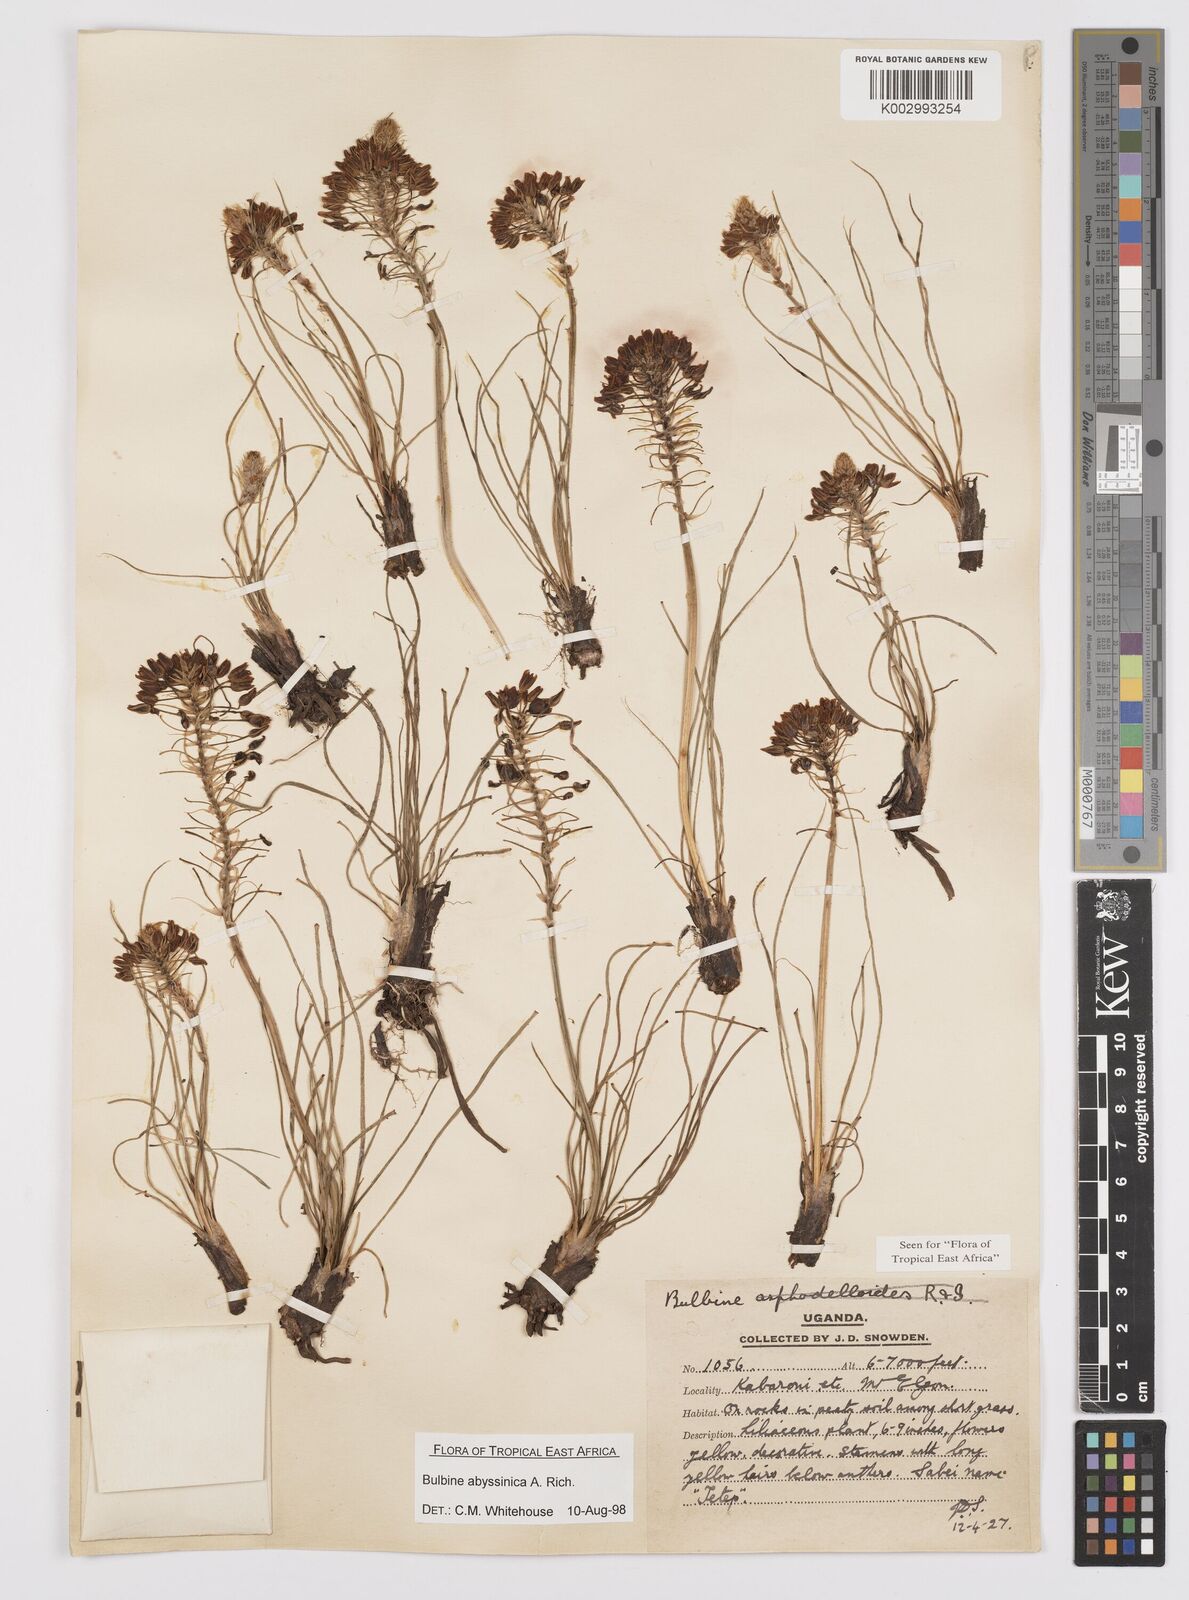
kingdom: Plantae
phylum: Tracheophyta
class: Liliopsida
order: Asparagales
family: Asphodelaceae
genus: Bulbine
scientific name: Bulbine abyssinica
